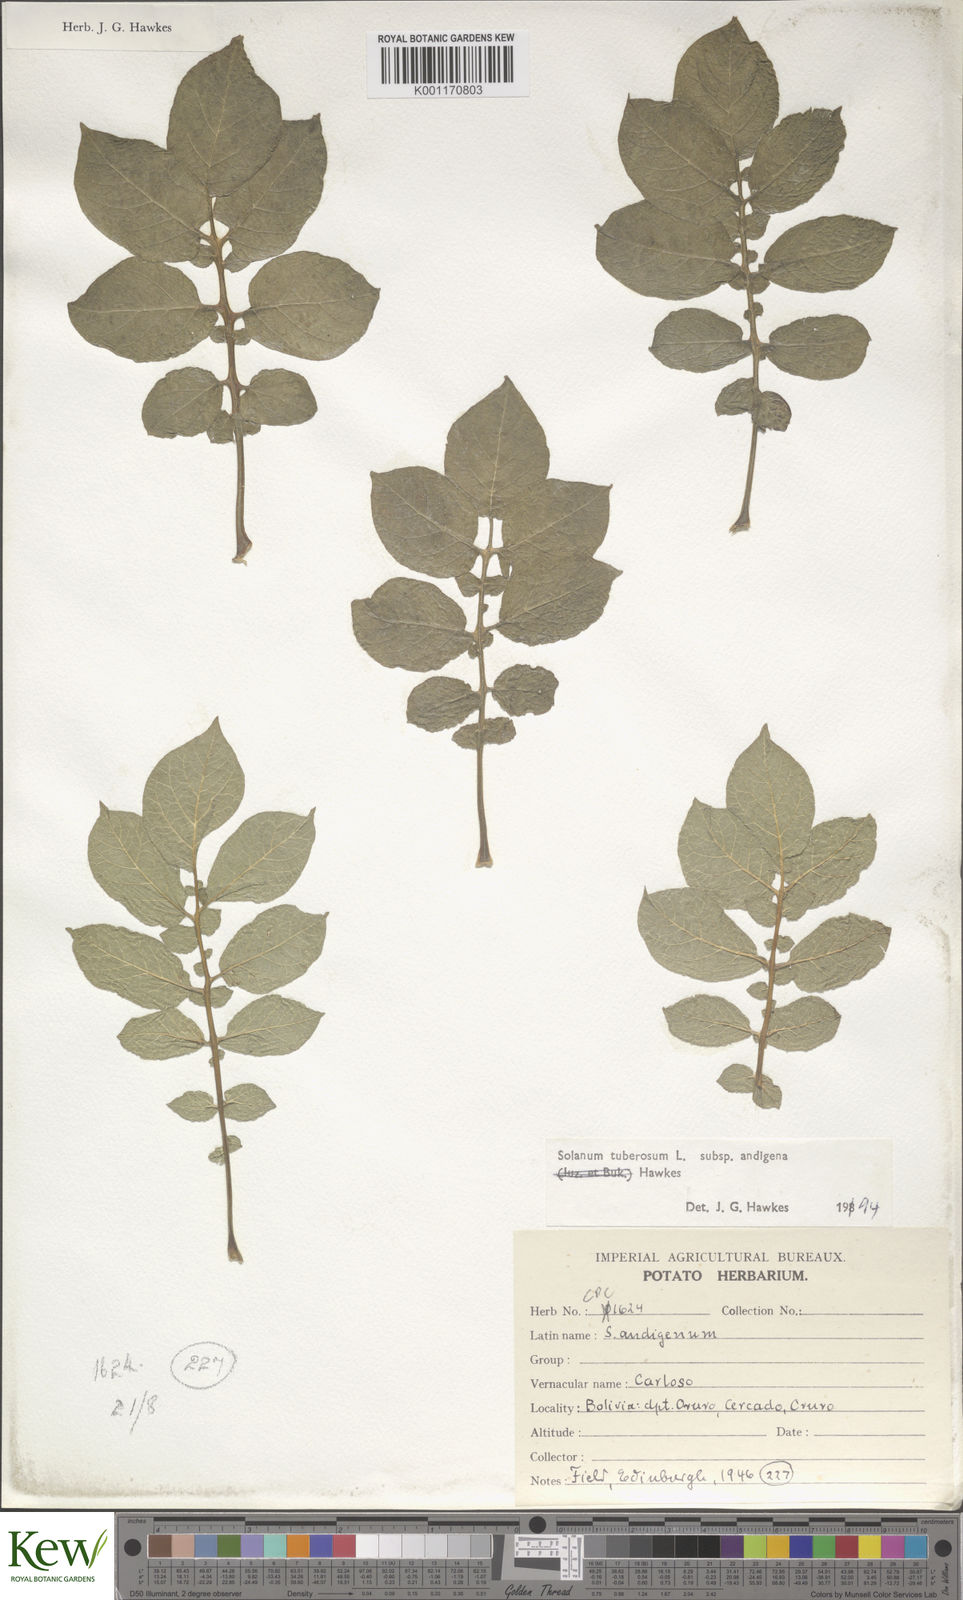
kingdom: Plantae
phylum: Tracheophyta
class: Magnoliopsida
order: Solanales
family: Solanaceae
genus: Solanum
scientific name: Solanum tuberosum
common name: Potato
